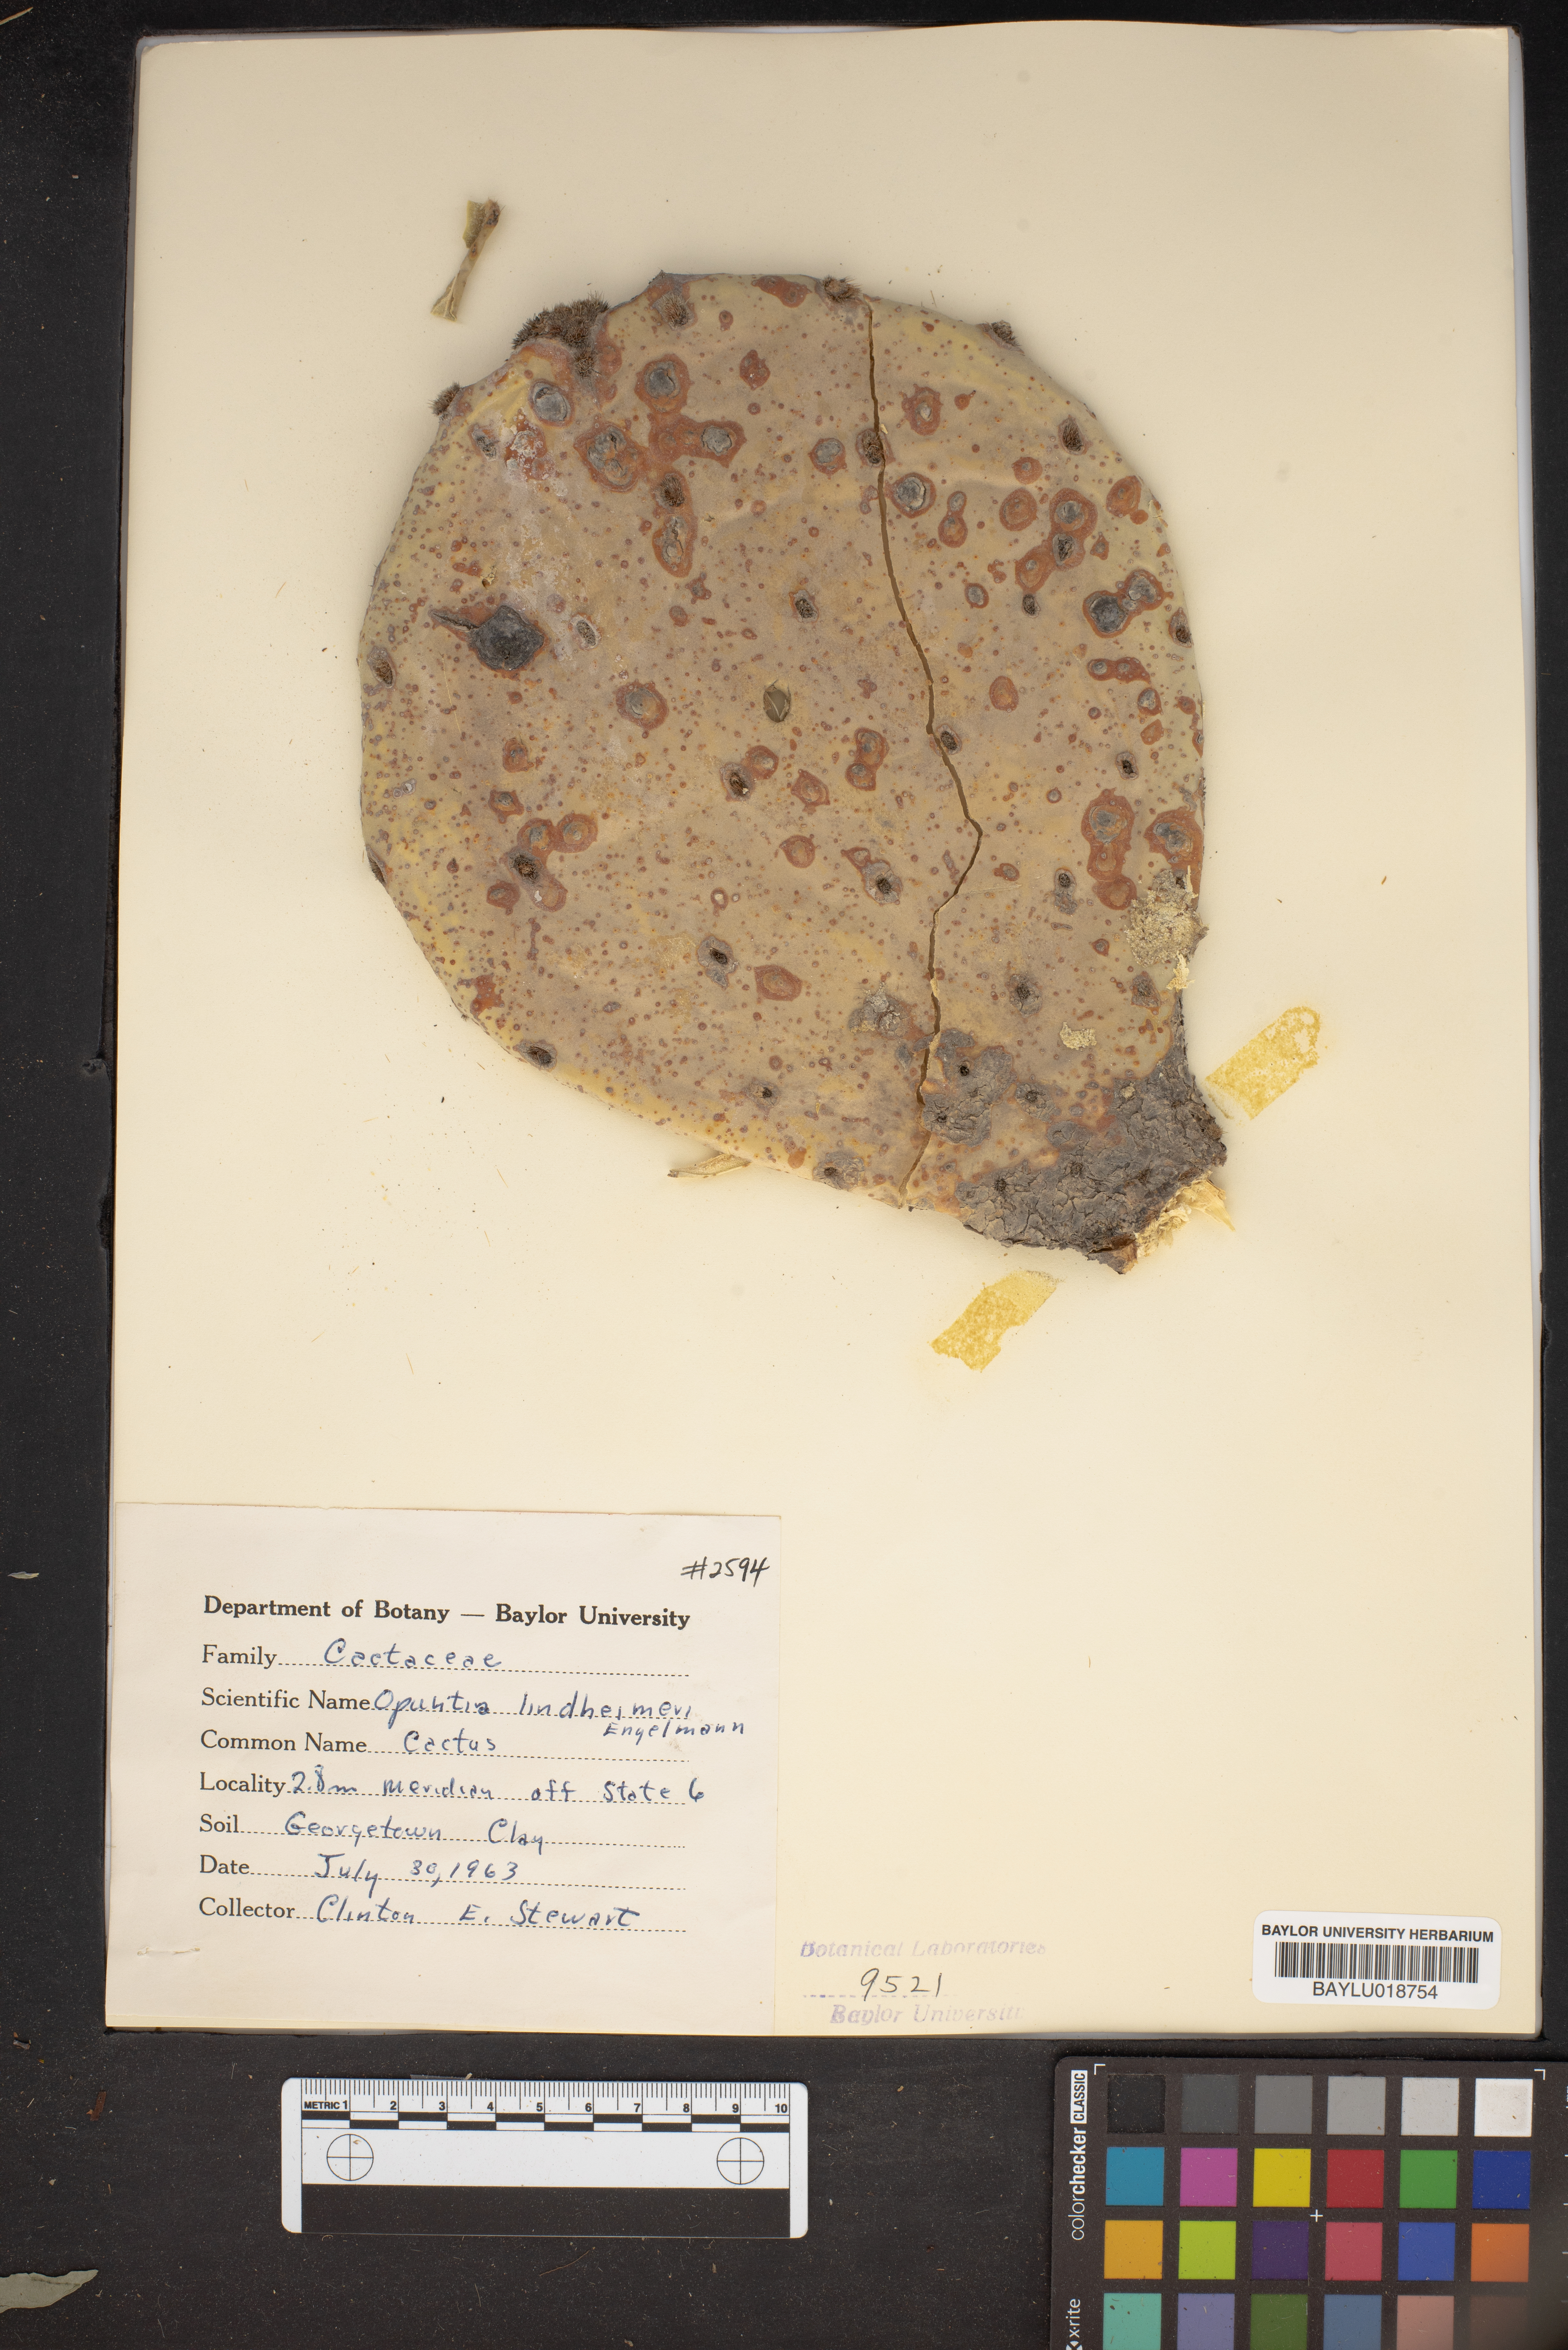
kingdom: Plantae
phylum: Tracheophyta
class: Magnoliopsida
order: Caryophyllales
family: Cactaceae
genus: Opuntia
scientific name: Opuntia engelmannii
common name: Cactus-apple
